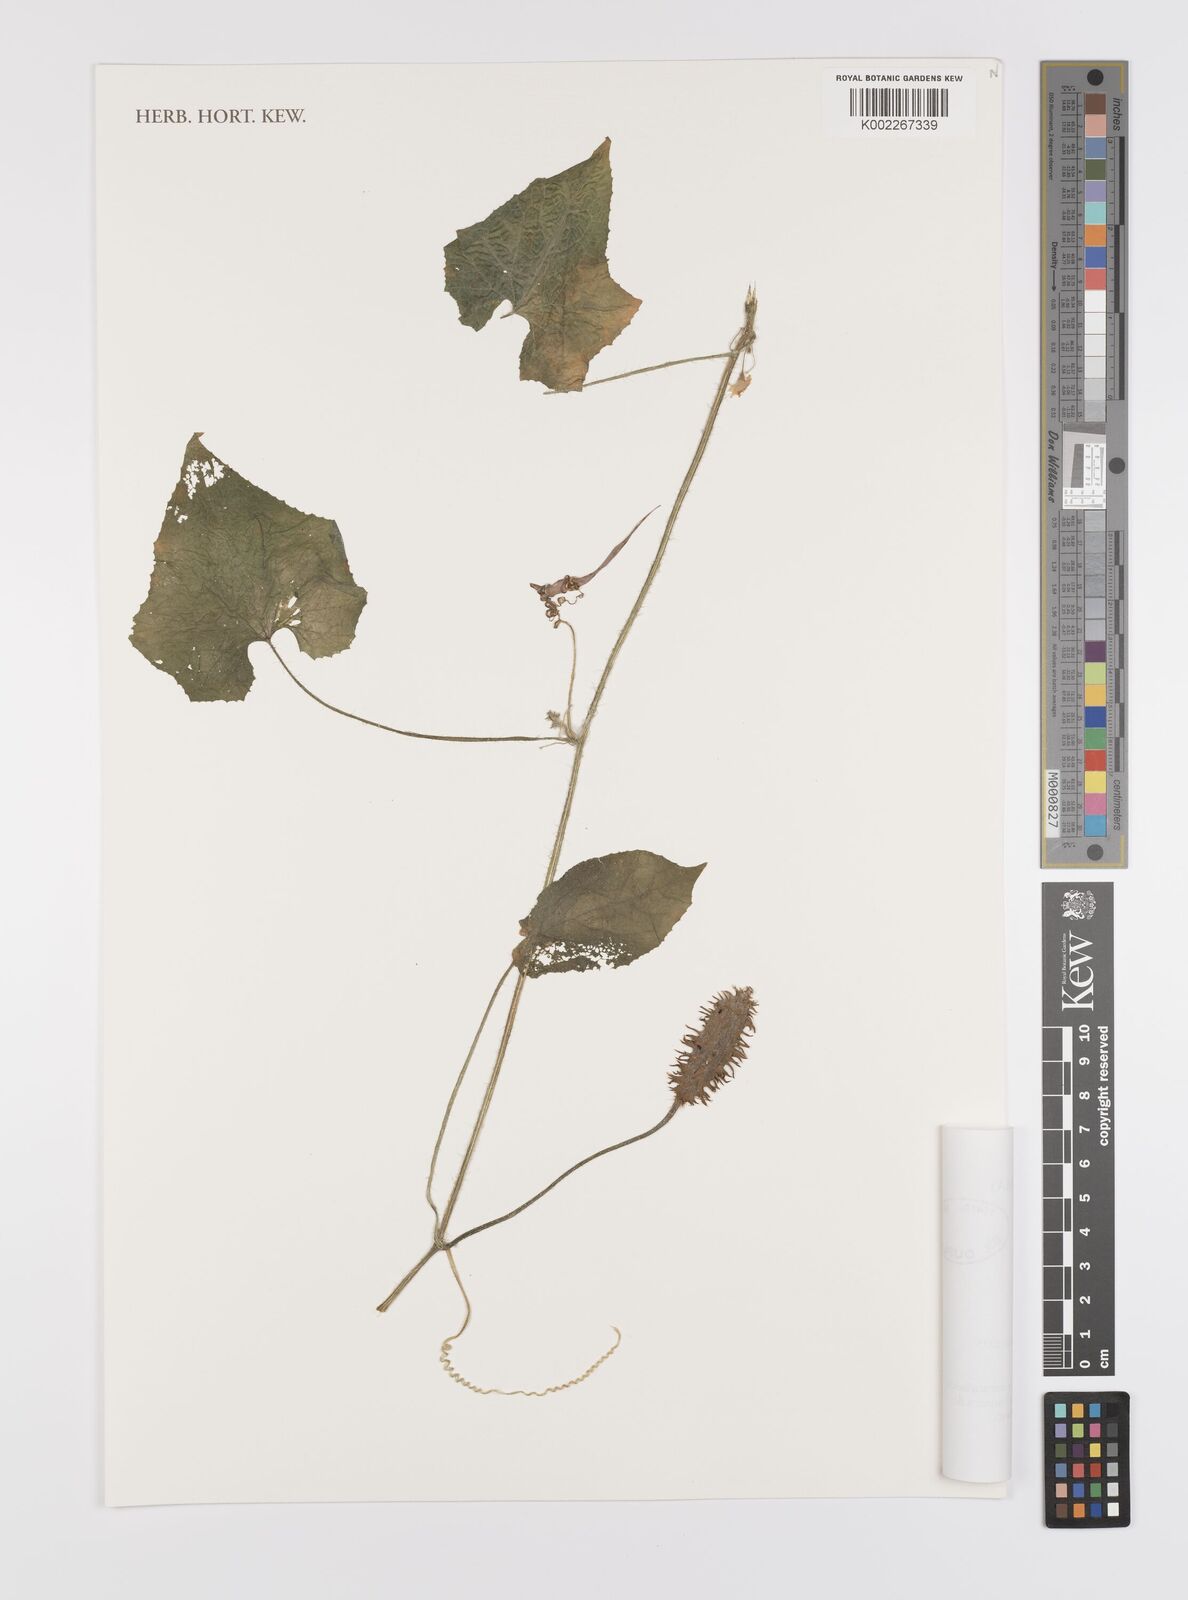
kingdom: Plantae
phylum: Tracheophyta
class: Magnoliopsida
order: Cucurbitales
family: Cucurbitaceae
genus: Cucumis
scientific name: Cucumis metuliferus
